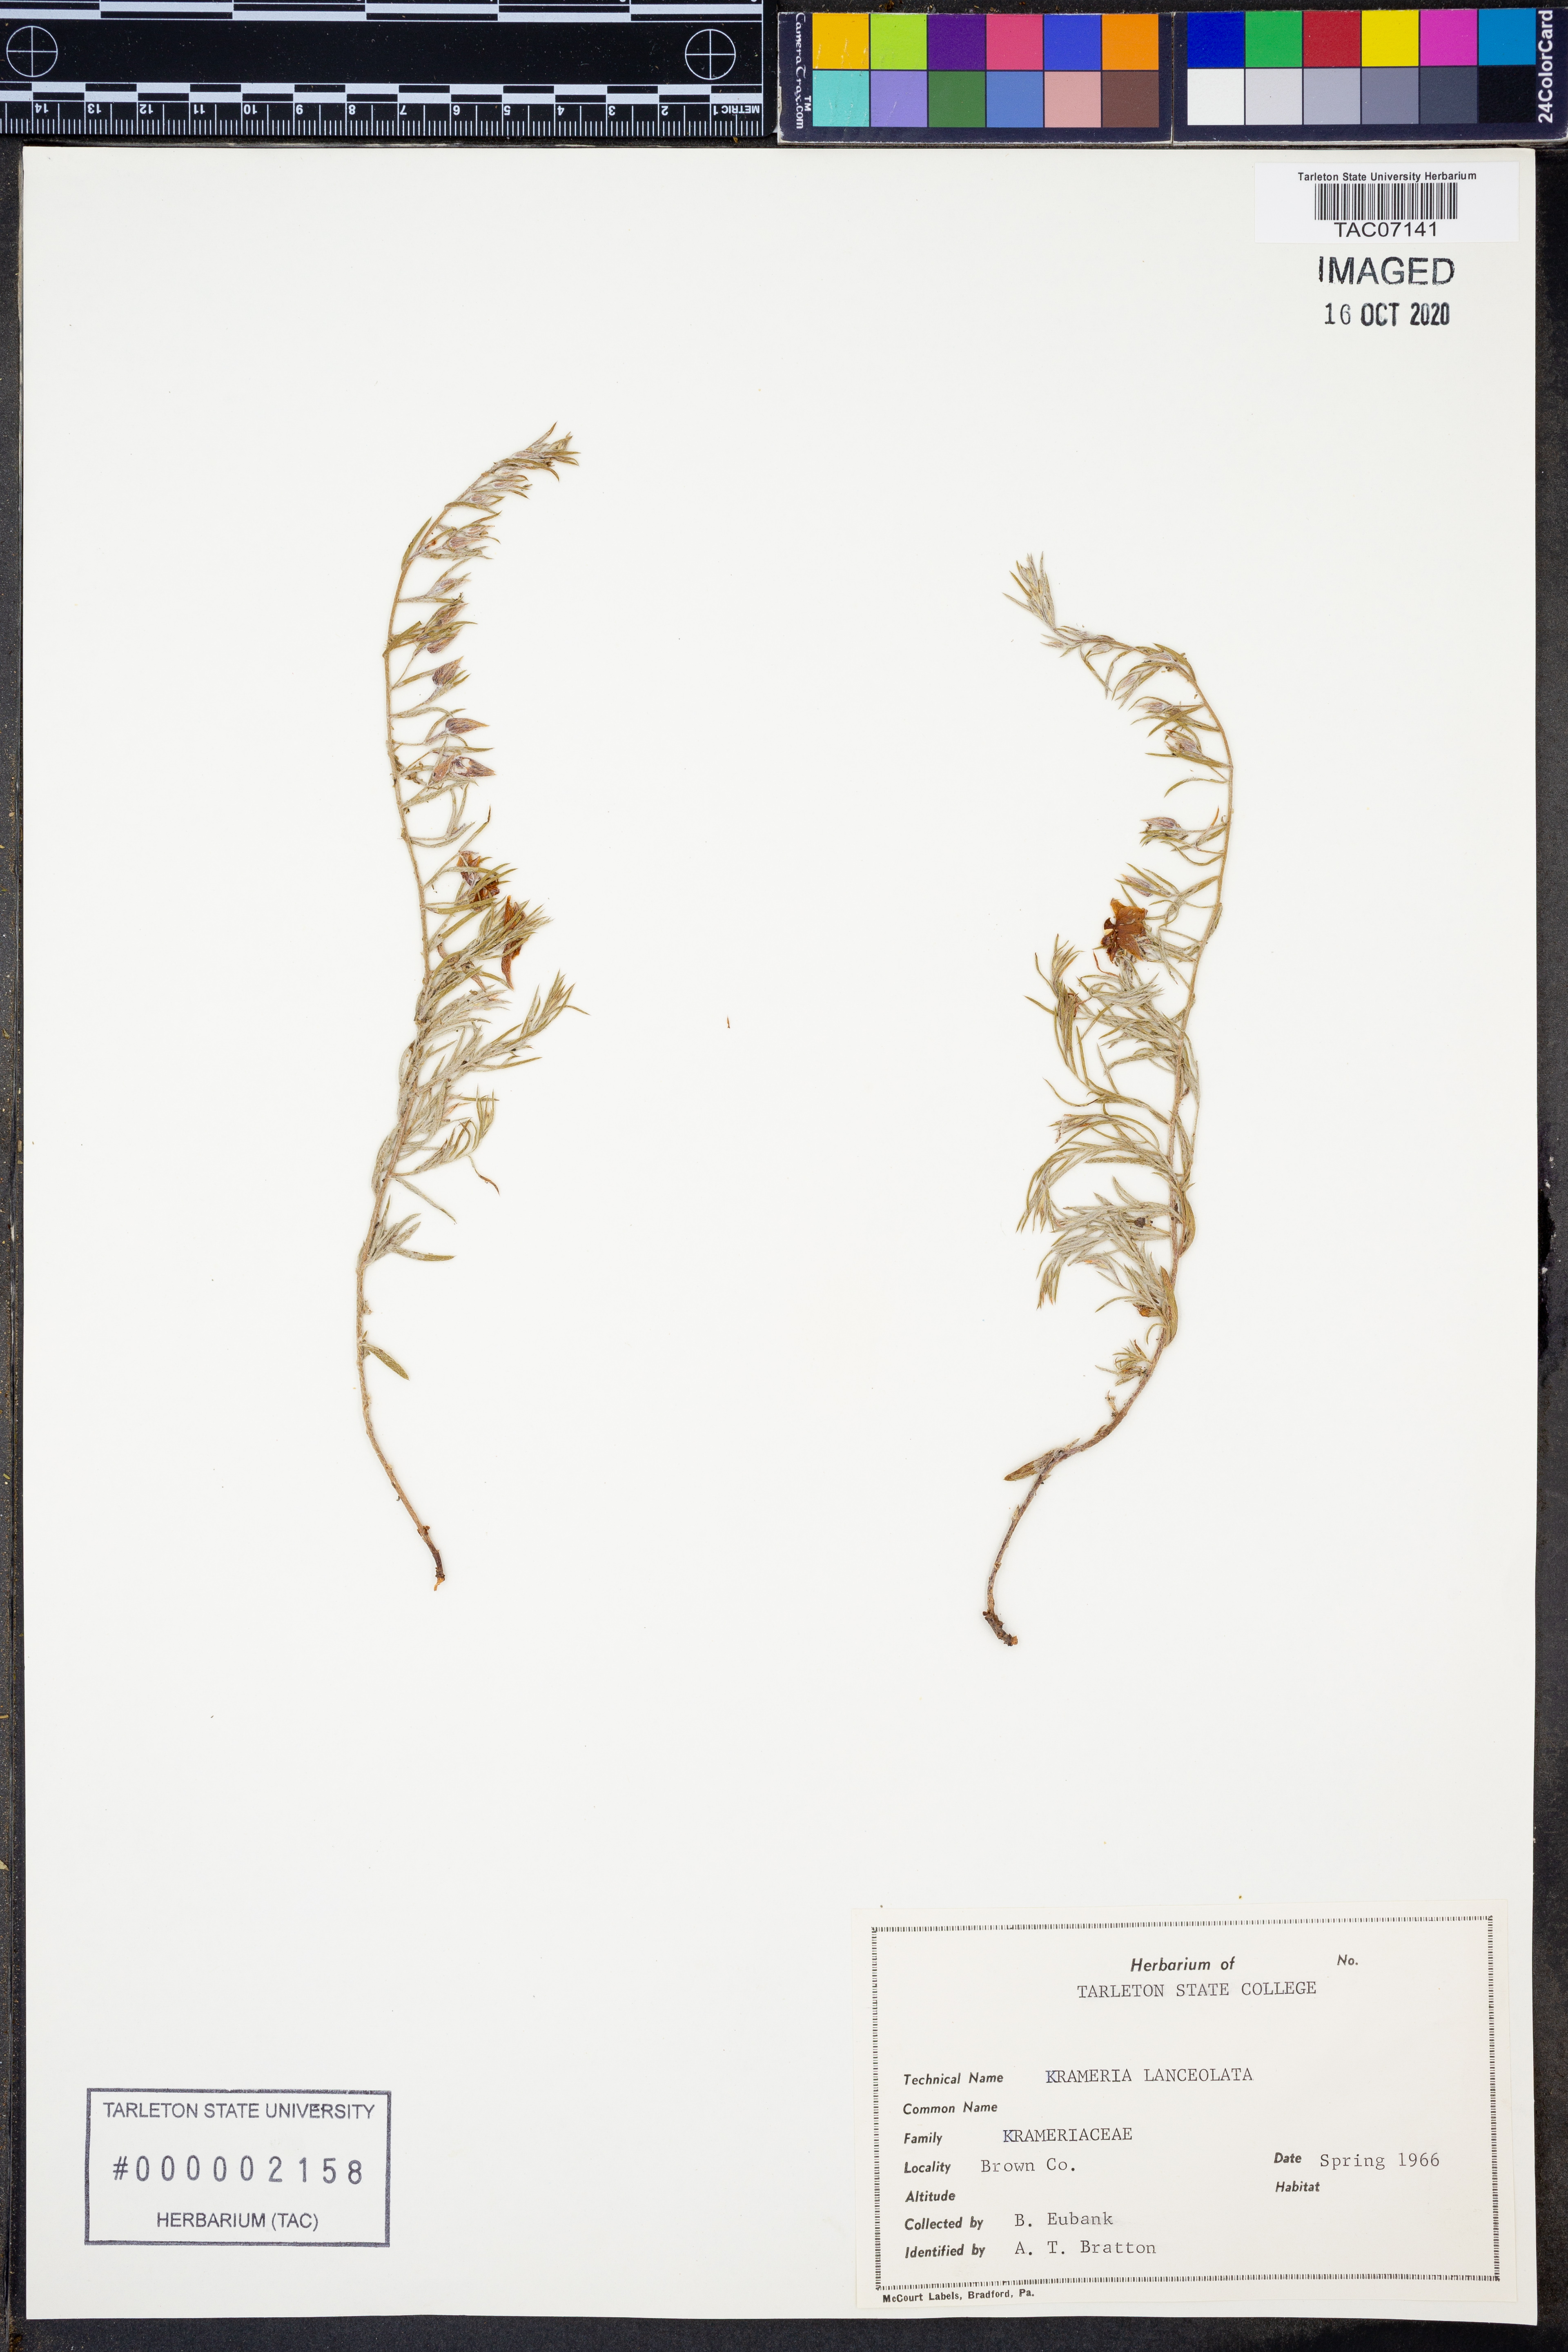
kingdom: Plantae
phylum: Tracheophyta
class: Magnoliopsida
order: Zygophyllales
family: Krameriaceae
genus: Krameria
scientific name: Krameria lanceolata
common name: Ratany
